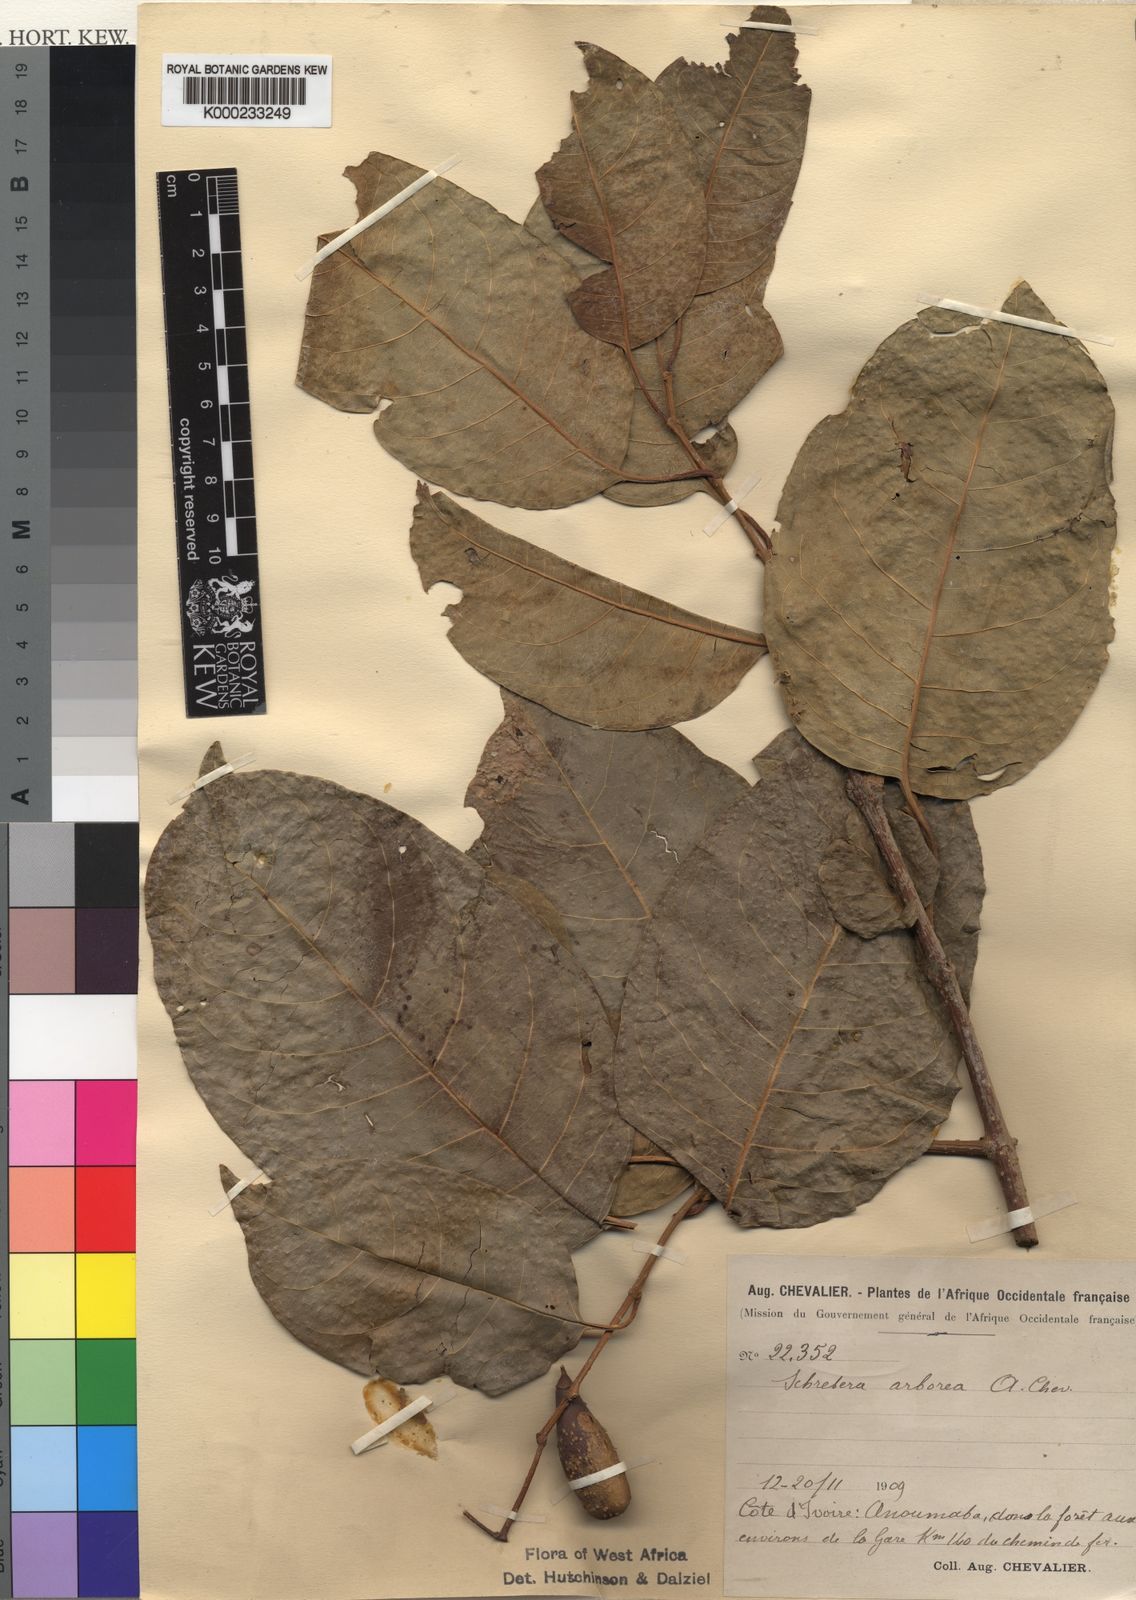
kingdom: Plantae
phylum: Tracheophyta
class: Magnoliopsida
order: Lamiales
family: Oleaceae
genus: Schrebera
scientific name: Schrebera arborea
